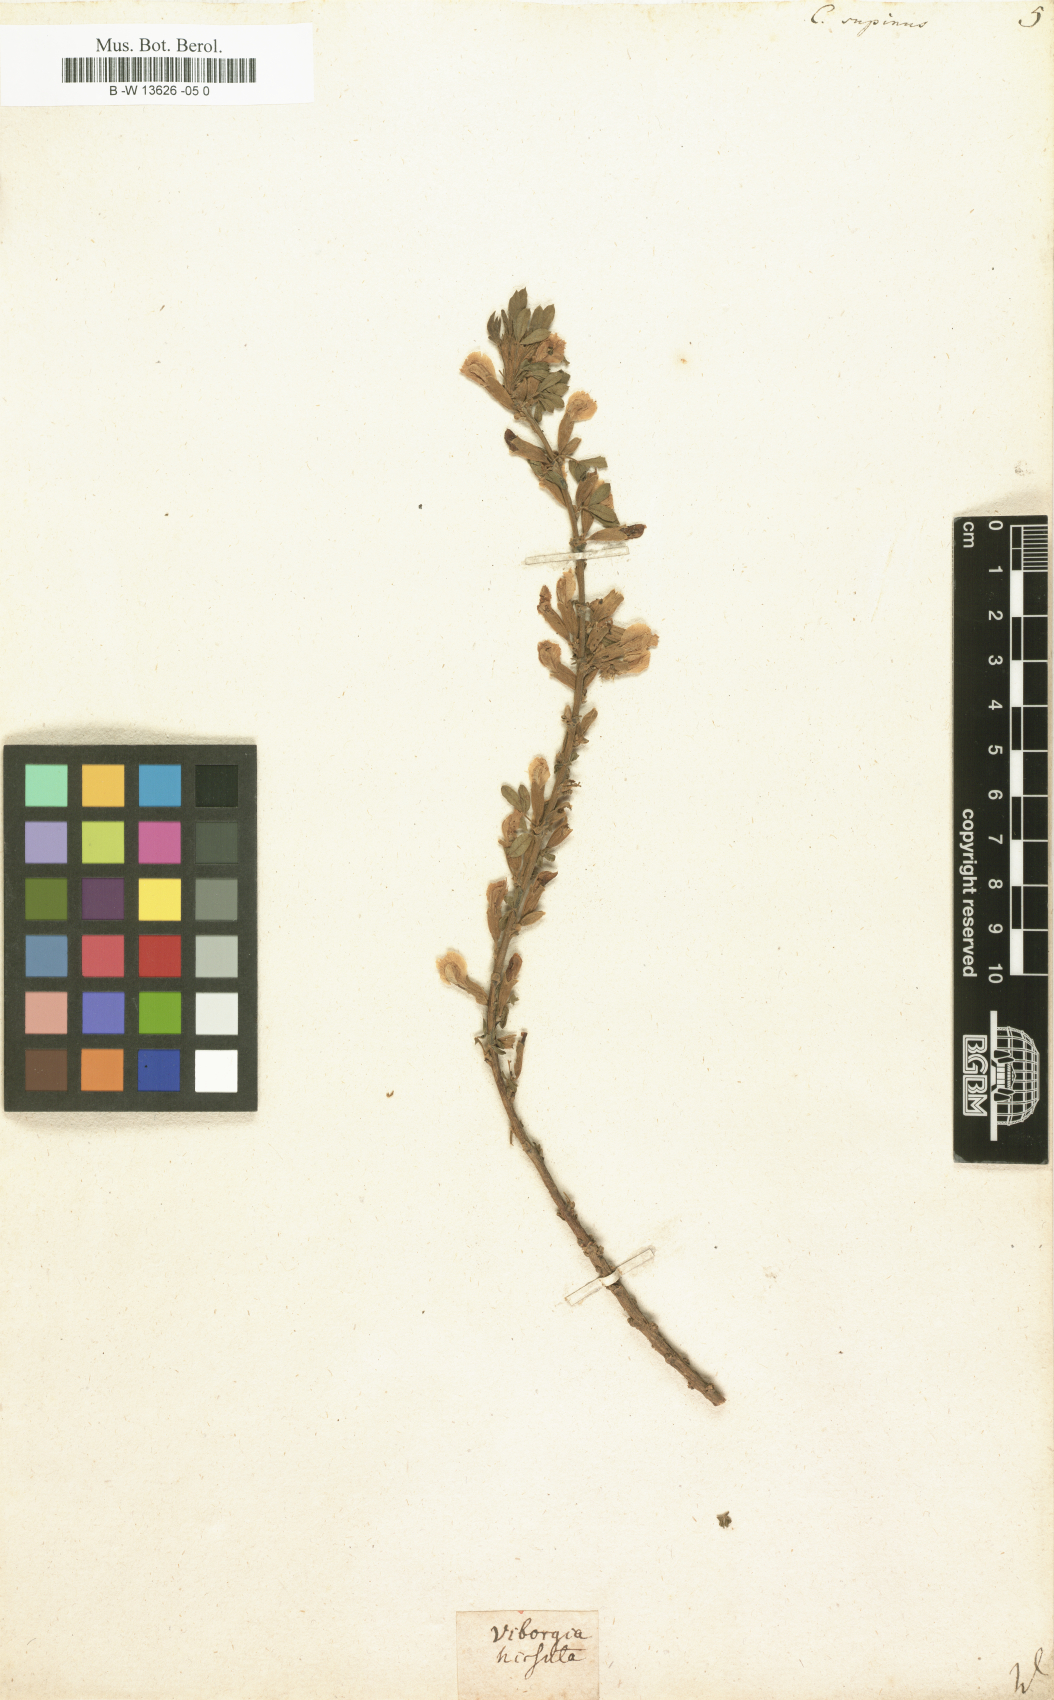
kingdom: Plantae
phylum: Tracheophyta
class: Magnoliopsida
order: Fabales
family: Fabaceae
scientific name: Fabaceae
